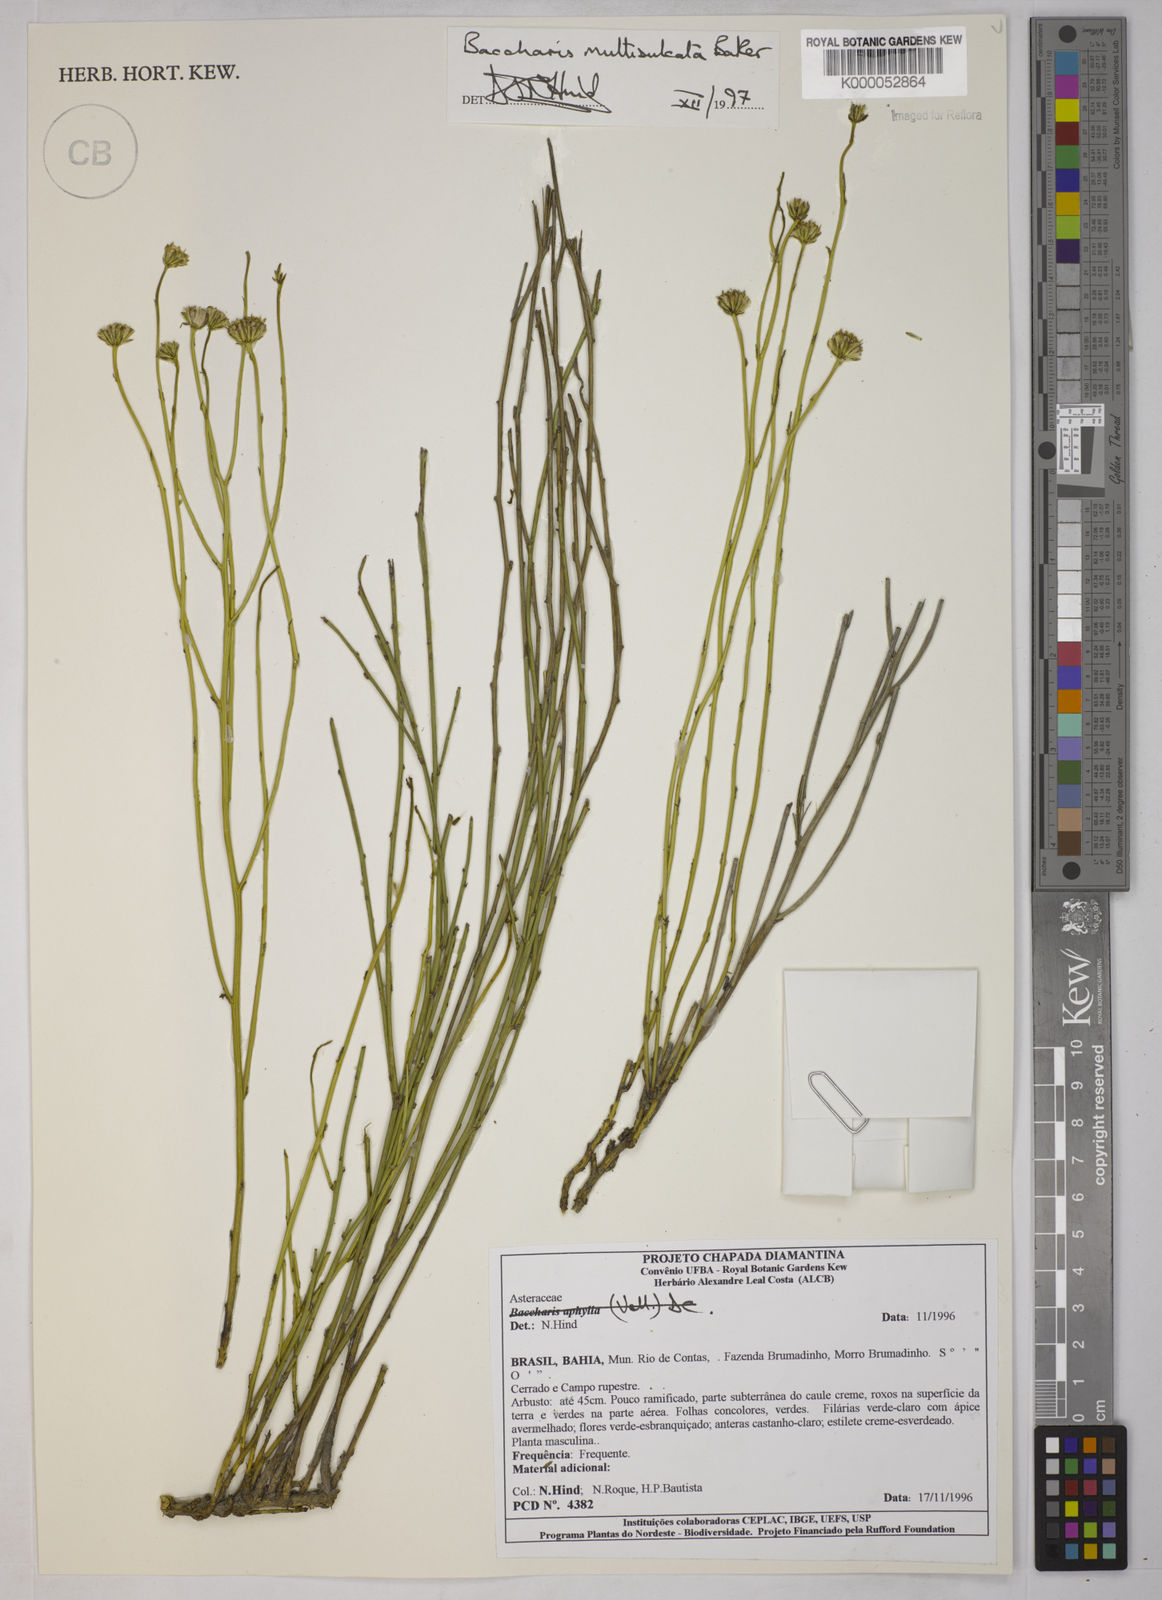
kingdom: Plantae
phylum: Tracheophyta
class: Magnoliopsida
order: Asterales
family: Asteraceae
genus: Baccharis
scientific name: Baccharis orbignyana
